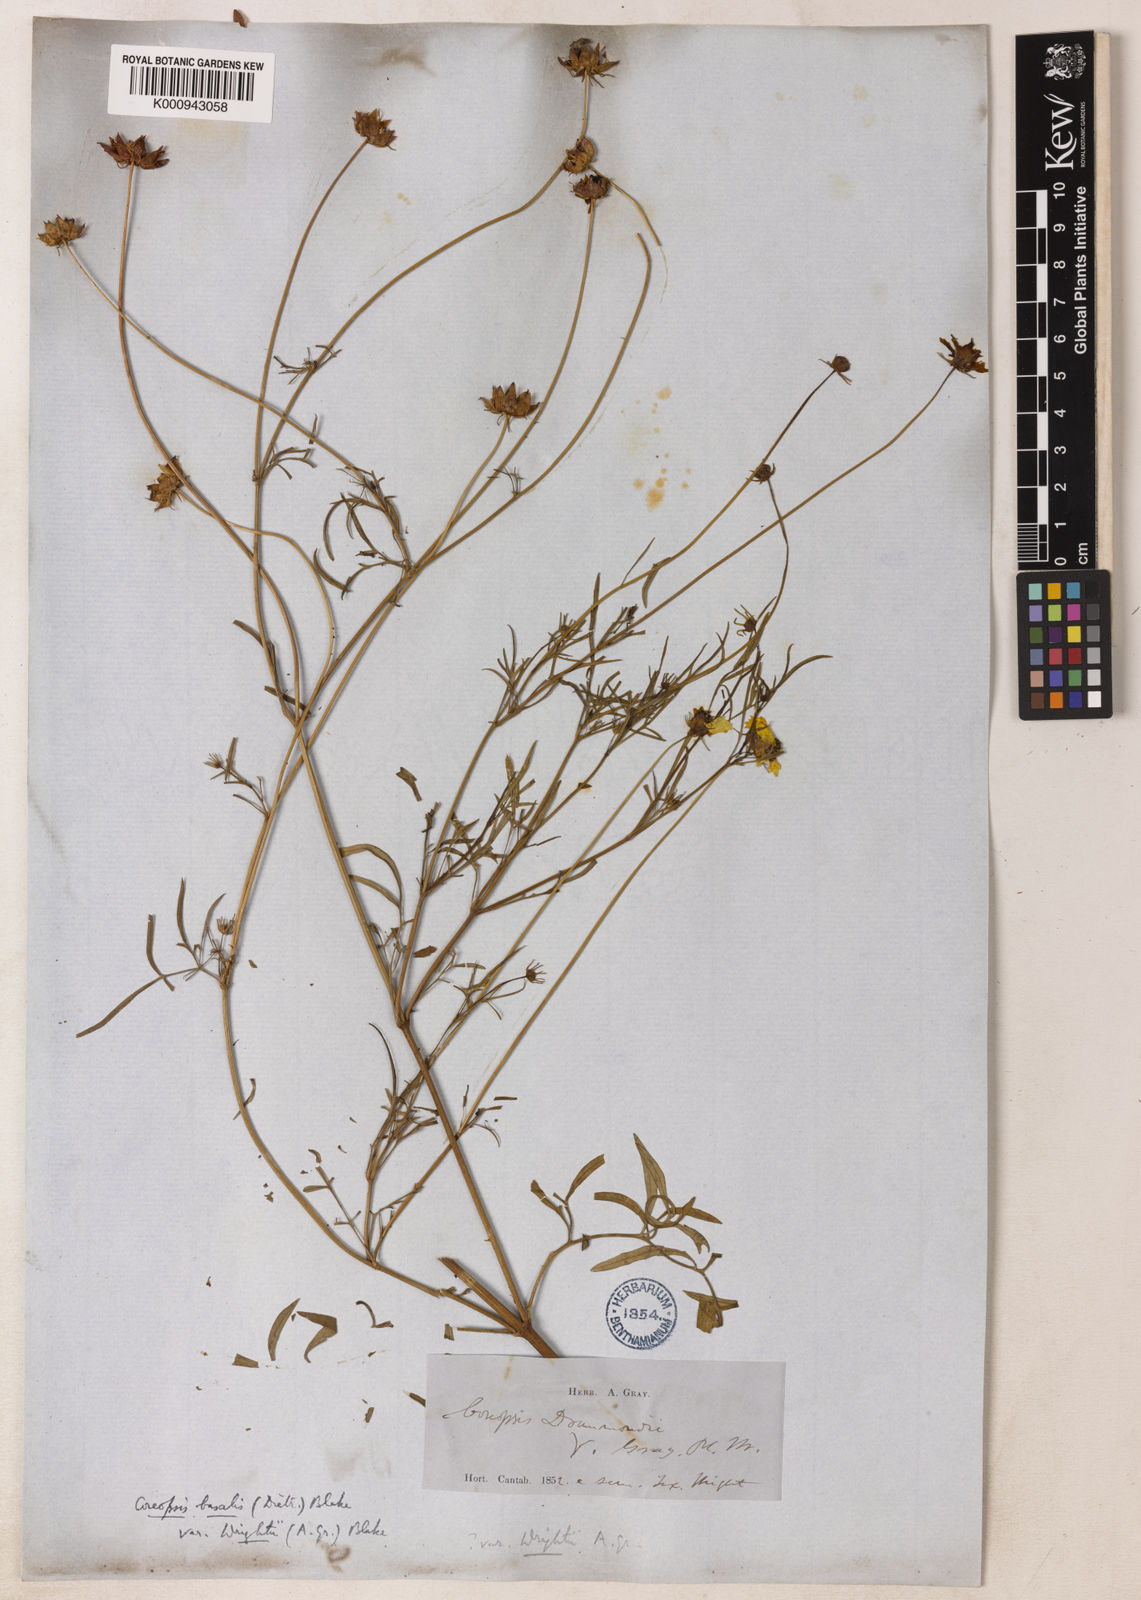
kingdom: Plantae
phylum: Tracheophyta
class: Magnoliopsida
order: Asterales
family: Asteraceae
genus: Coreopsis
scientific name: Coreopsis basalis
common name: Golden-mane coreopsis
